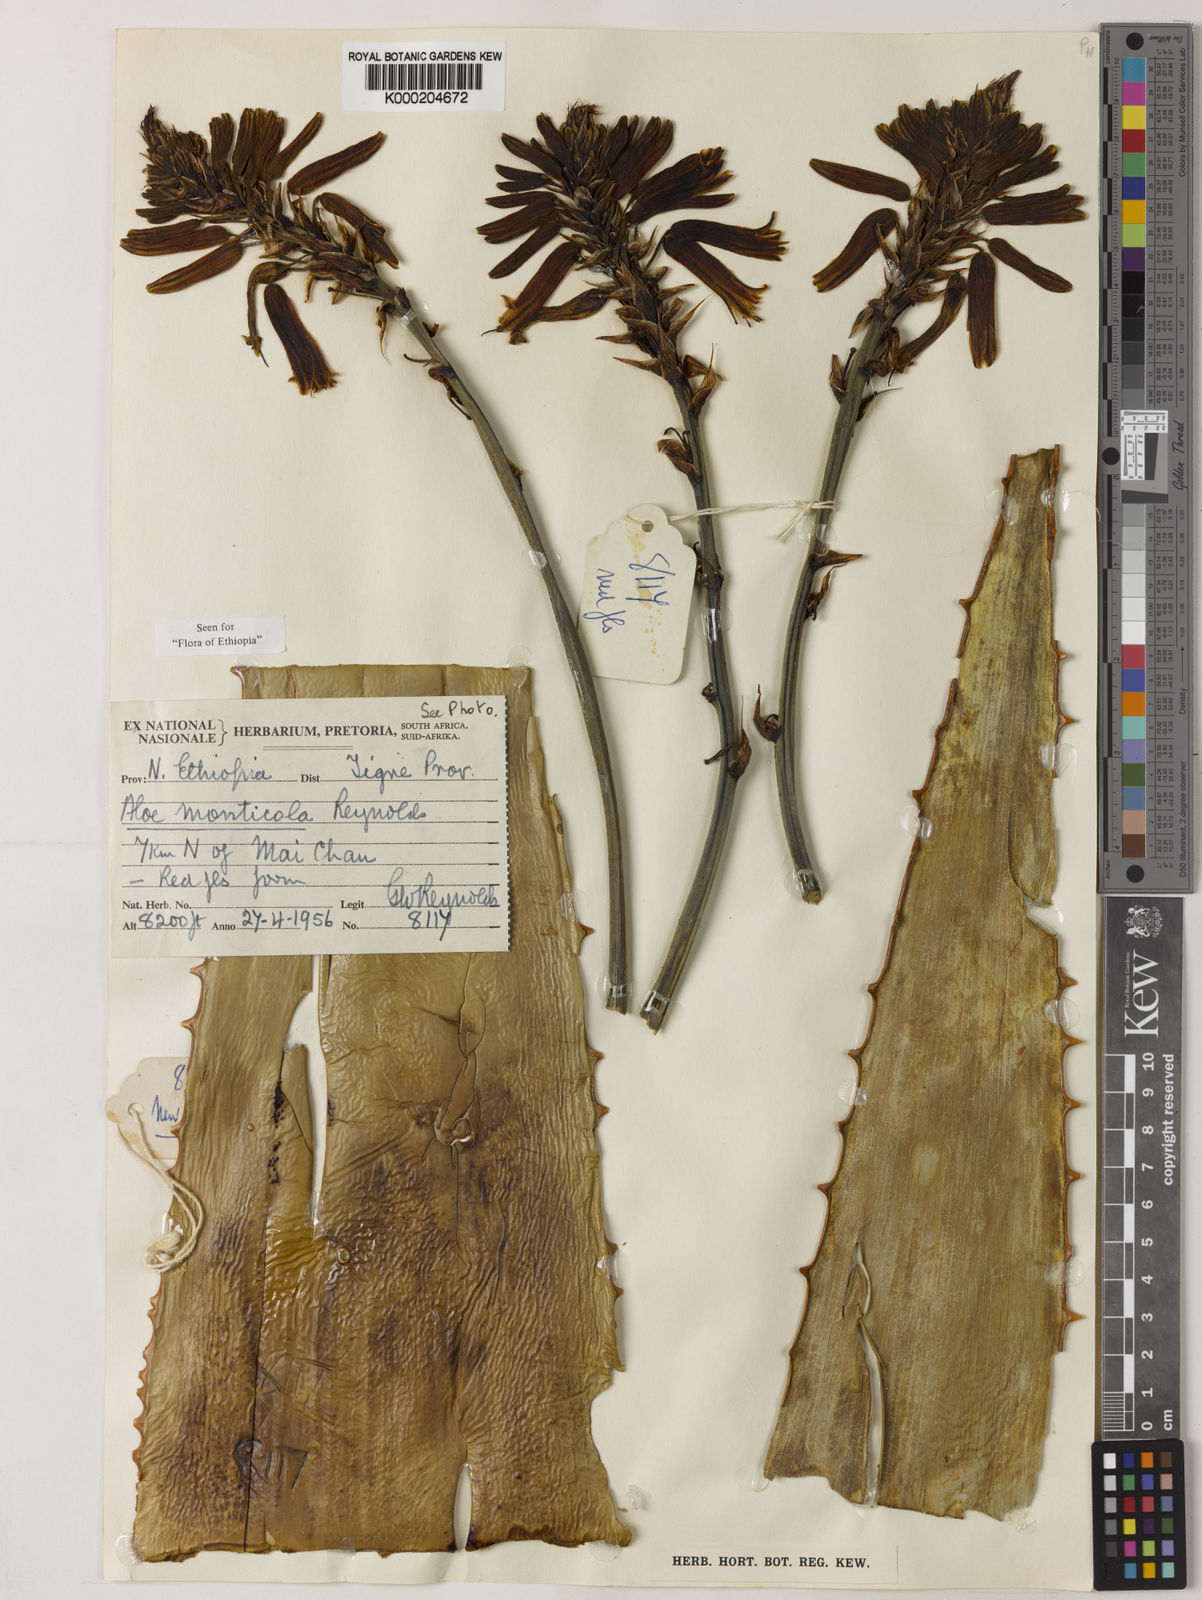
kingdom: Plantae
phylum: Tracheophyta
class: Liliopsida
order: Asparagales
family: Asphodelaceae
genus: Aloe
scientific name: Aloe monticola
